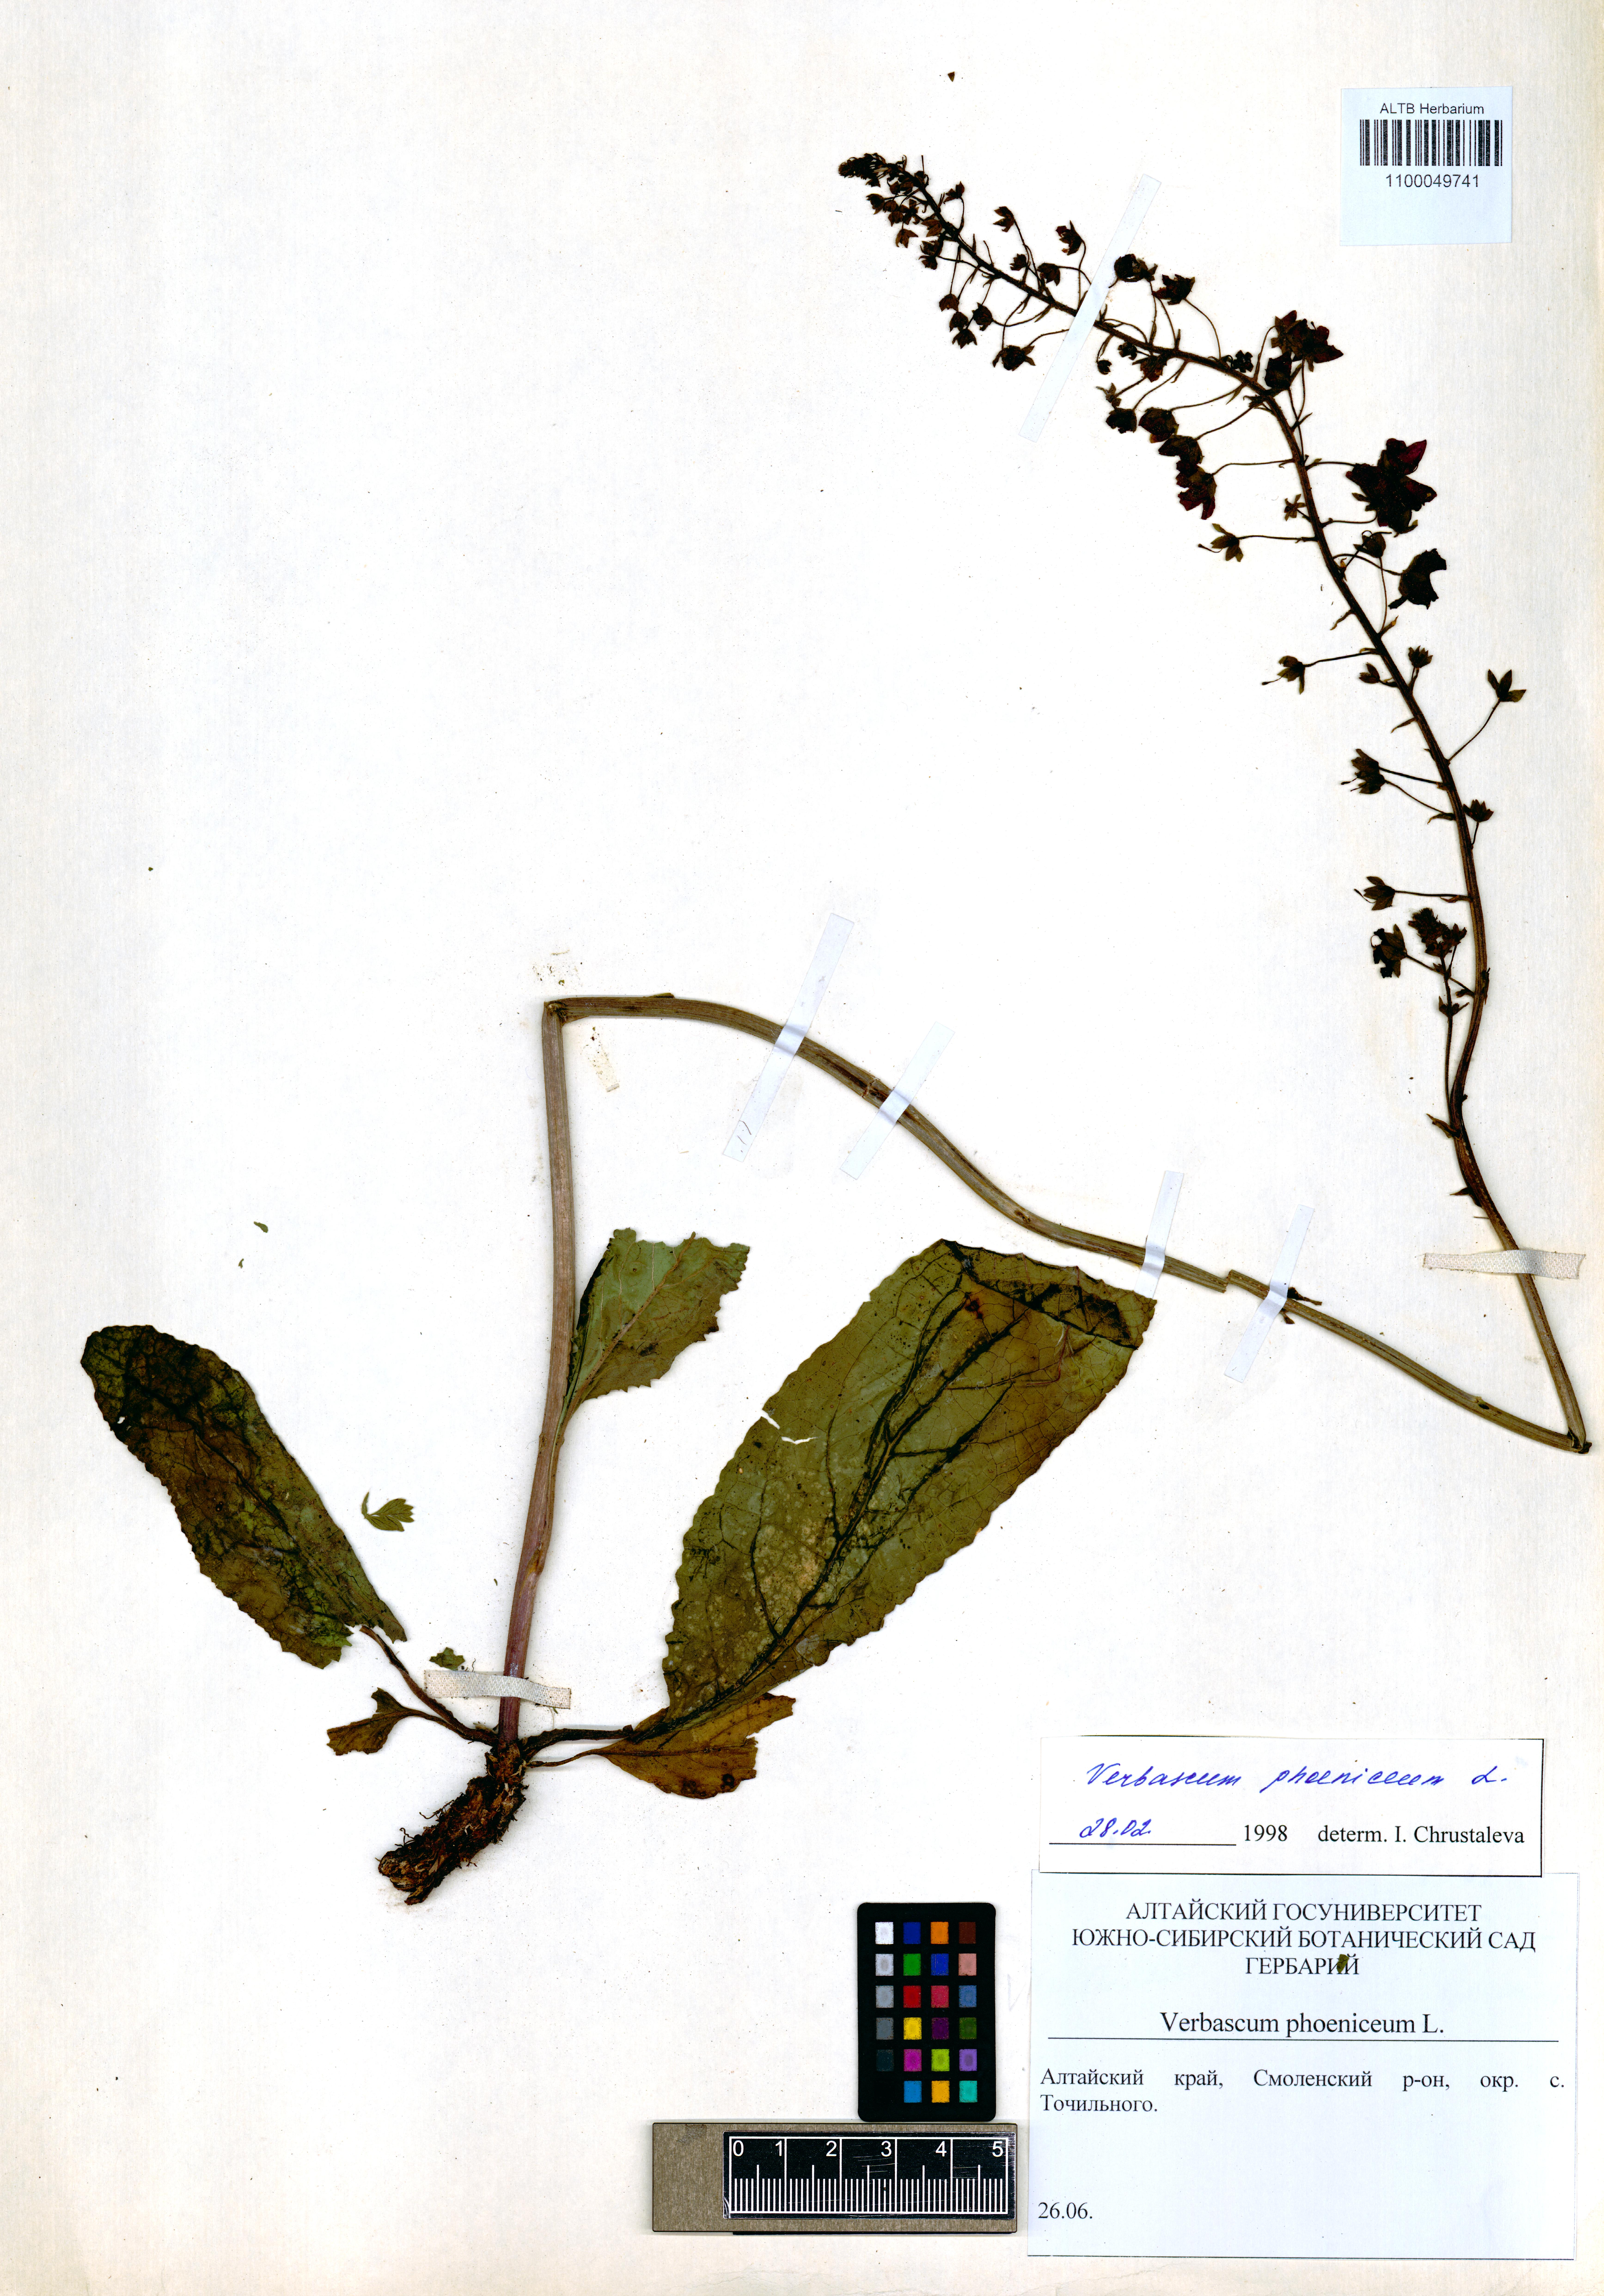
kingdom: Plantae
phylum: Tracheophyta
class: Magnoliopsida
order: Lamiales
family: Scrophulariaceae
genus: Verbascum
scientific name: Verbascum phoeniceum
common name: Purple mullein
